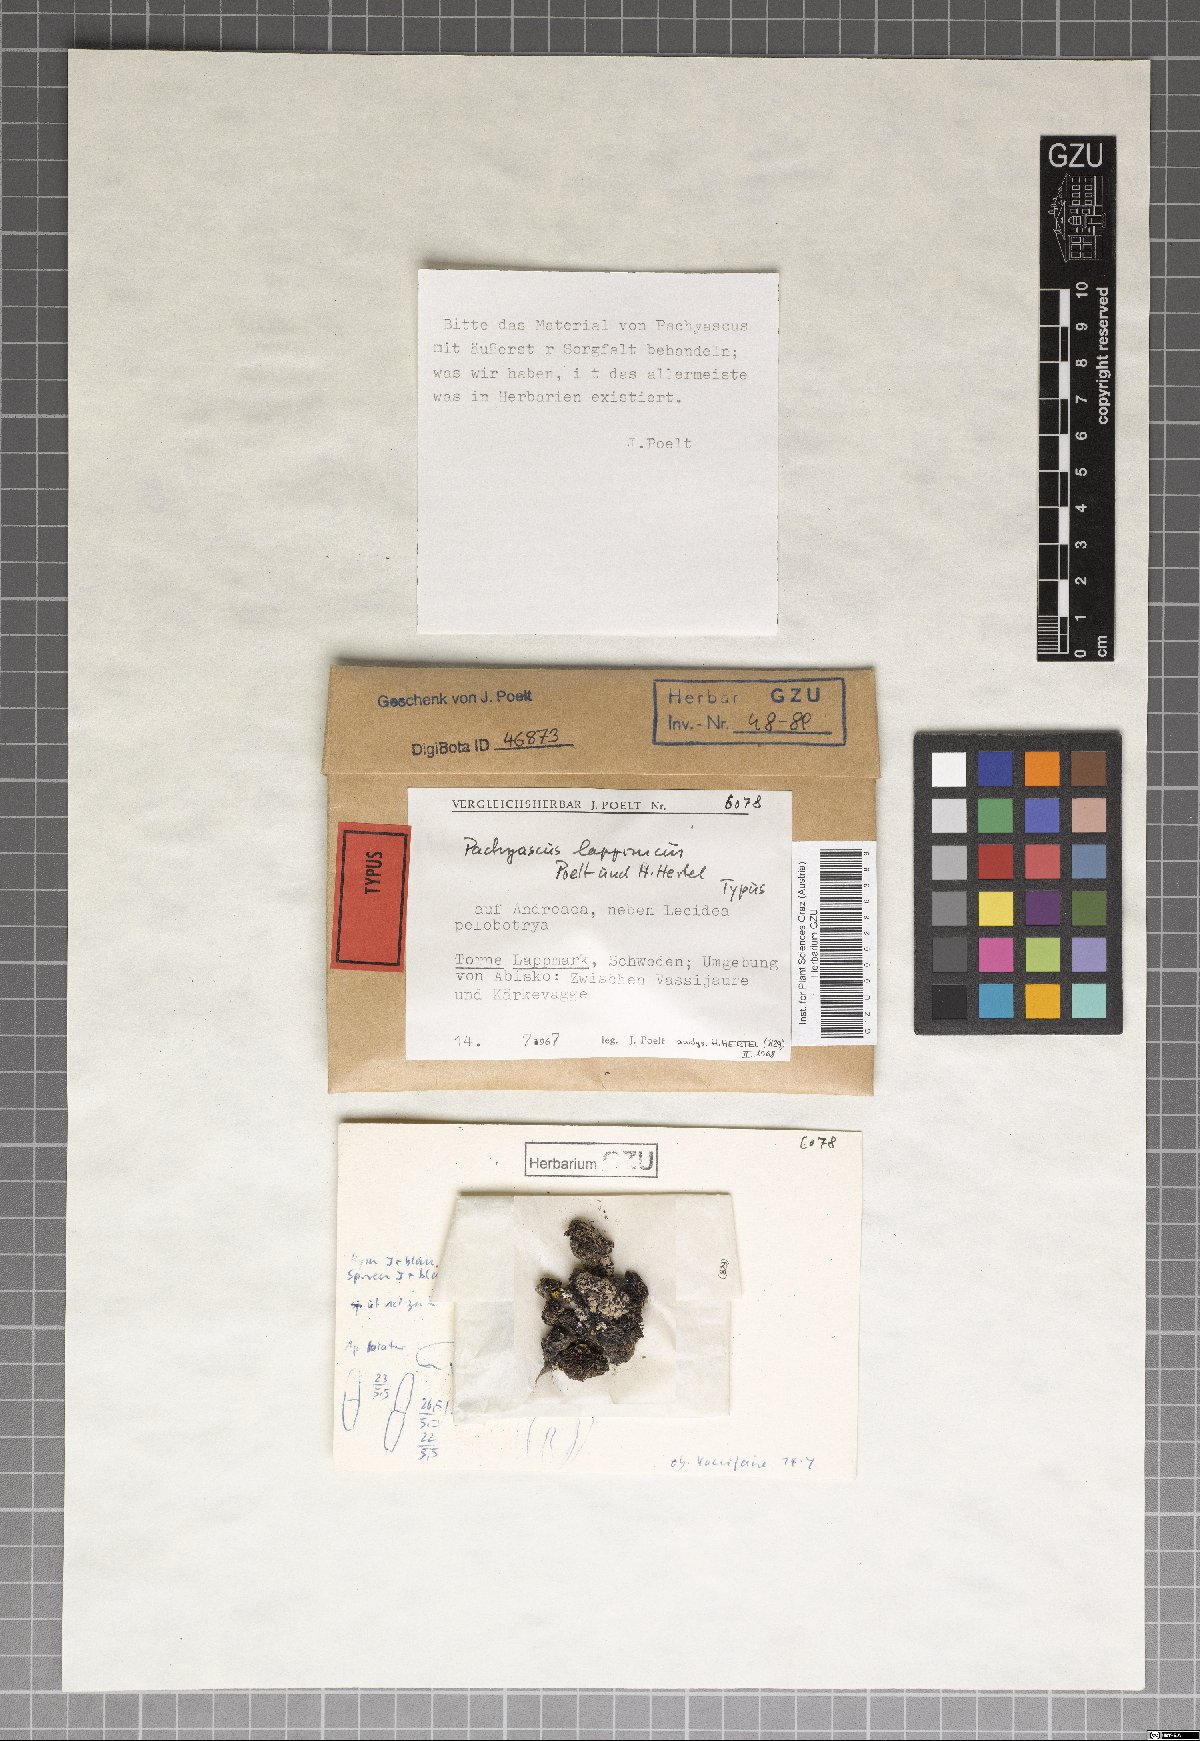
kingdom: Fungi
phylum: Ascomycota
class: Lecanoromycetes
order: Lecanorales
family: Pachyascaceae
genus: Pachyascus
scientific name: Pachyascus lapponicus
